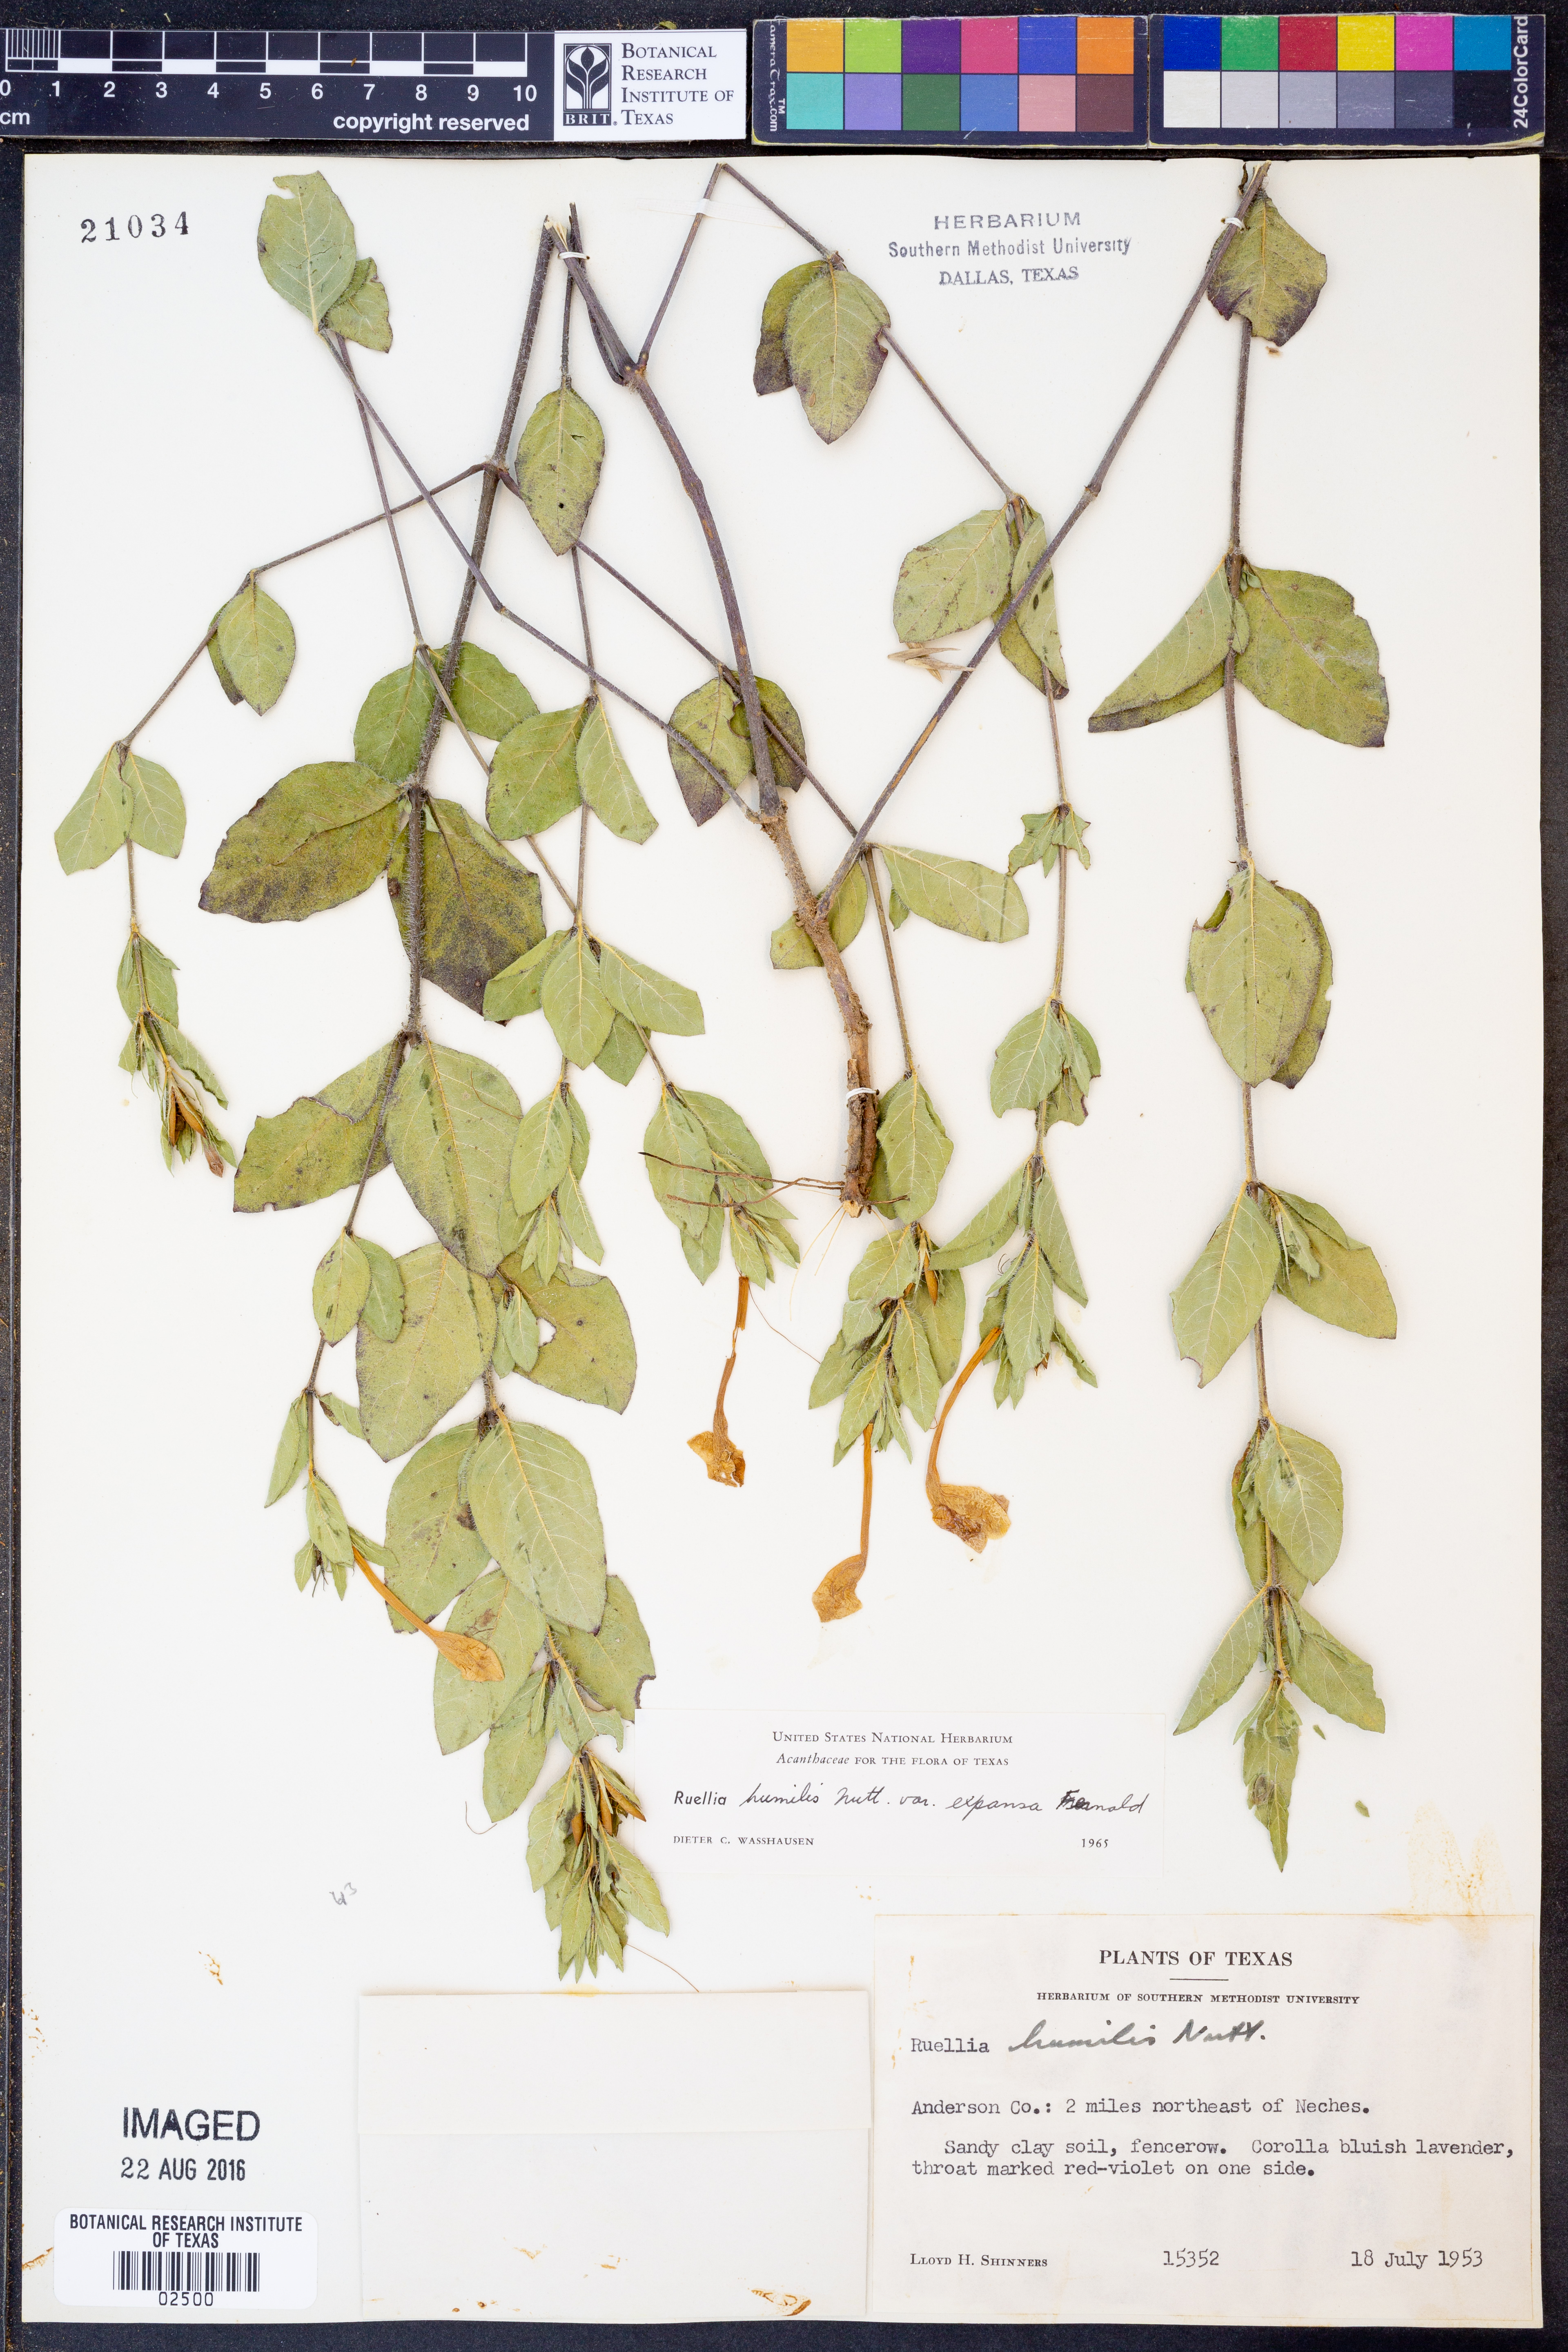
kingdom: Plantae
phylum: Tracheophyta
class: Magnoliopsida
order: Lamiales
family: Acanthaceae
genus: Ruellia
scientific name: Ruellia humilis
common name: Fringe-leaf ruellia
